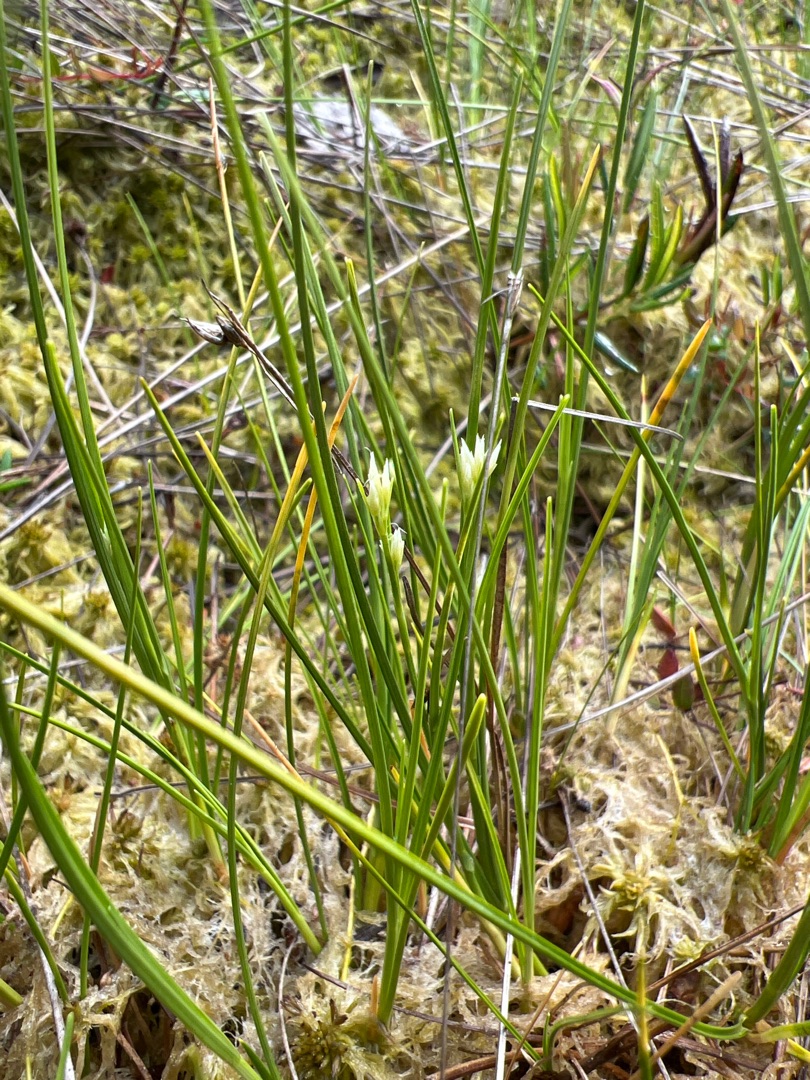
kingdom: Plantae
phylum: Tracheophyta
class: Liliopsida
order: Poales
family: Cyperaceae
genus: Rhynchospora
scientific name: Rhynchospora alba
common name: Hvid næbfrø
